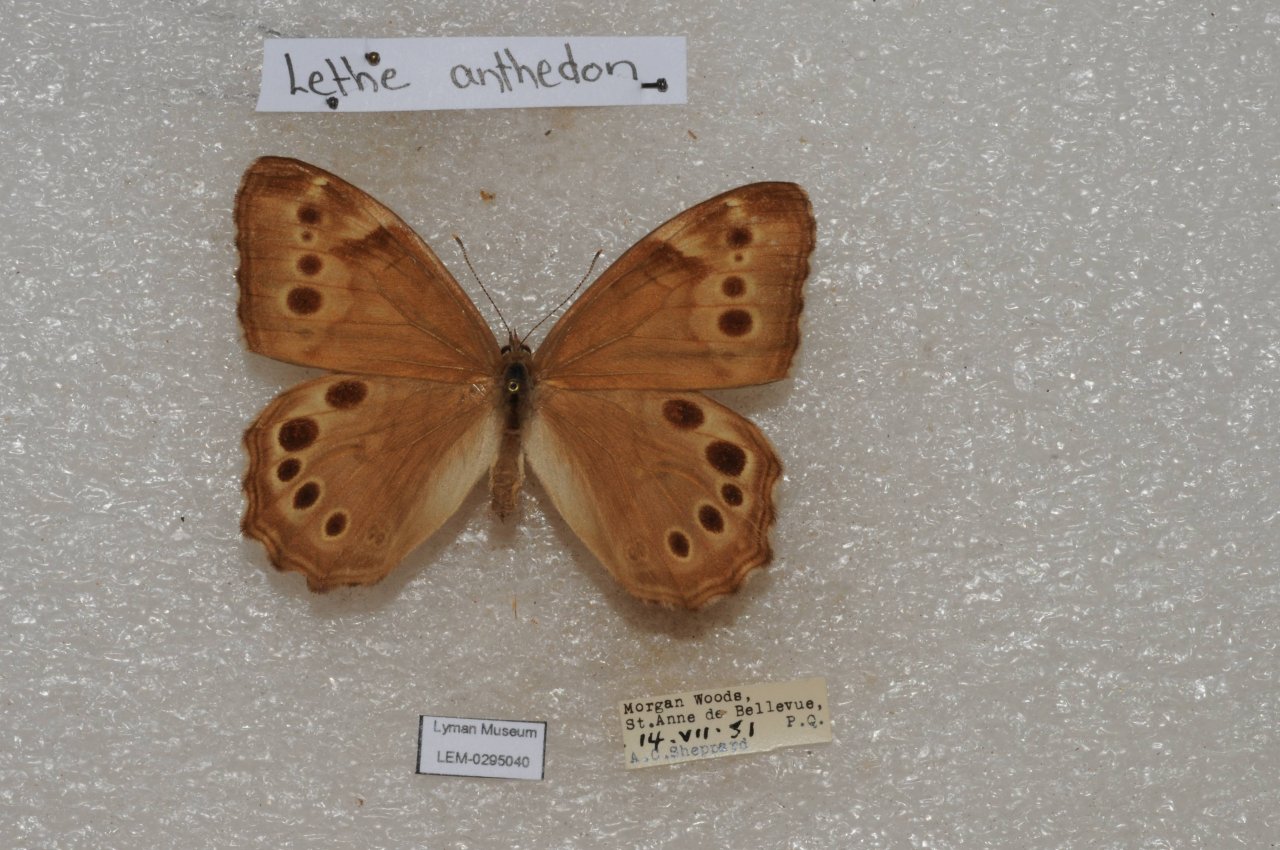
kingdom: Animalia
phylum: Arthropoda
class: Insecta
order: Lepidoptera
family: Nymphalidae
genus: Lethe
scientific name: Lethe anthedon
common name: Northern Pearly-Eye
